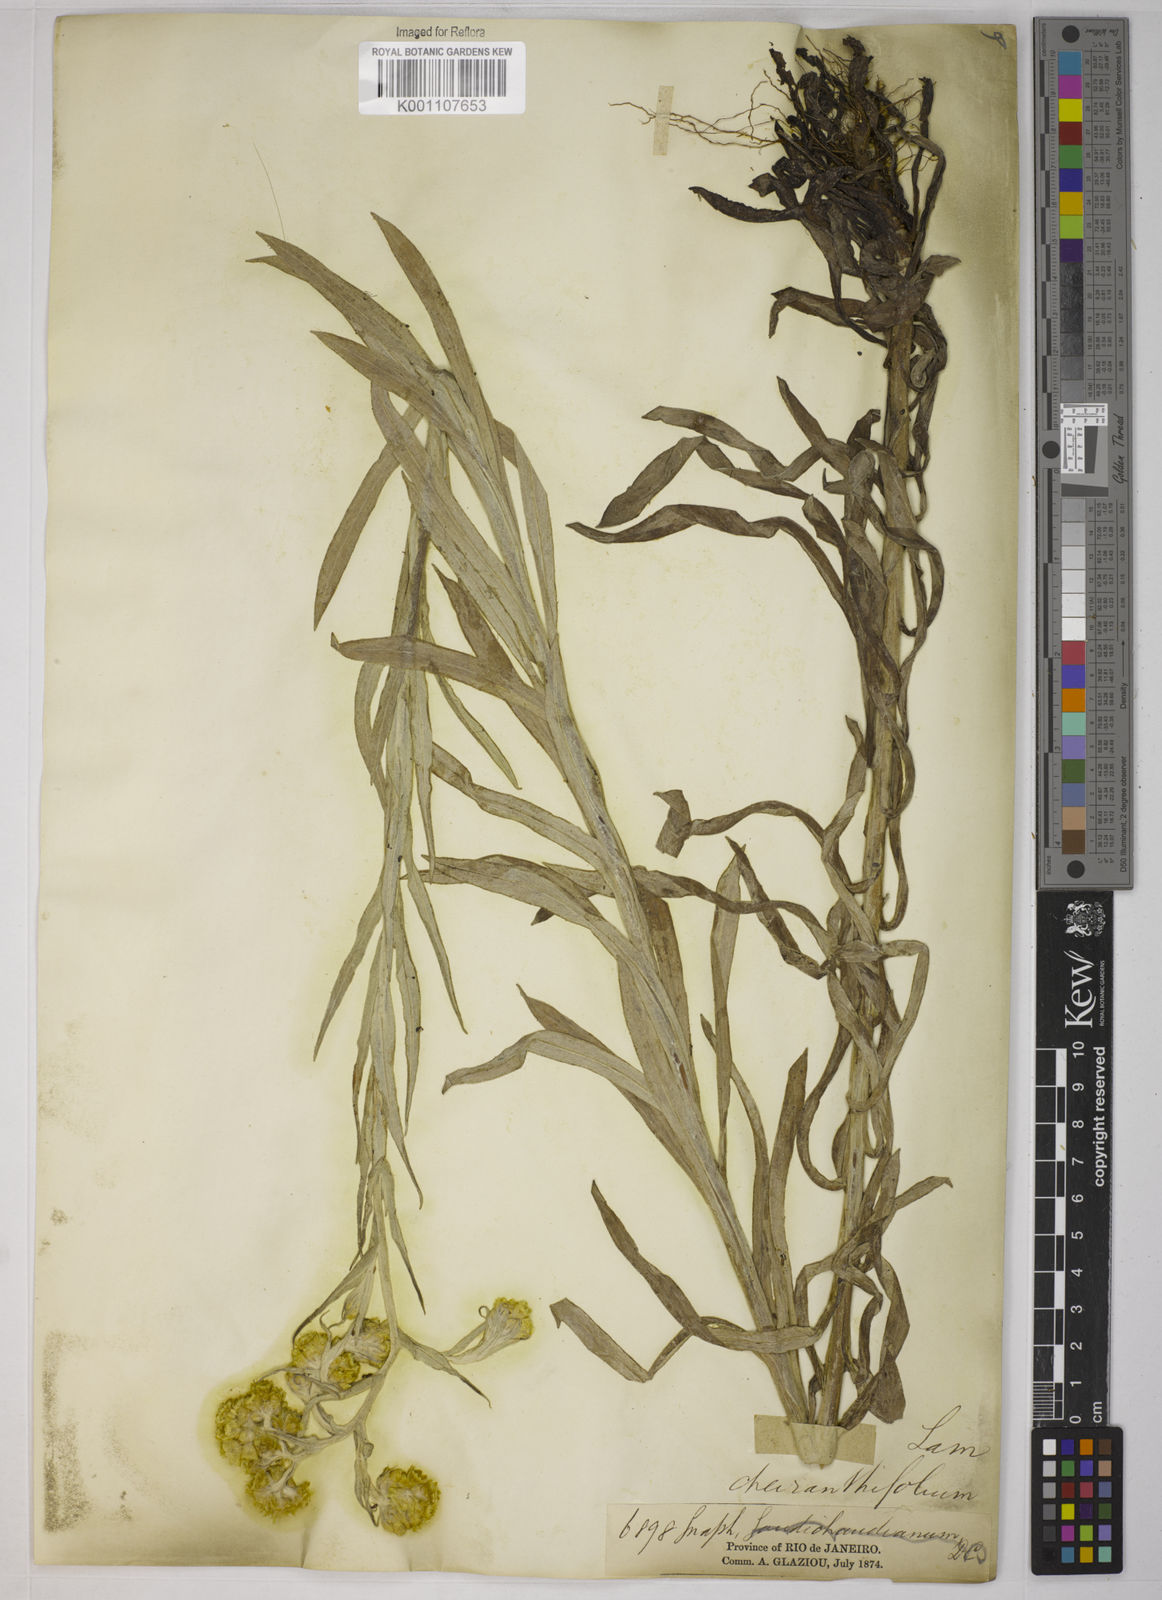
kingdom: Plantae
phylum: Tracheophyta
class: Magnoliopsida
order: Asterales
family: Asteraceae
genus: Pseudognaphalium
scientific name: Pseudognaphalium cheiranthifolium
